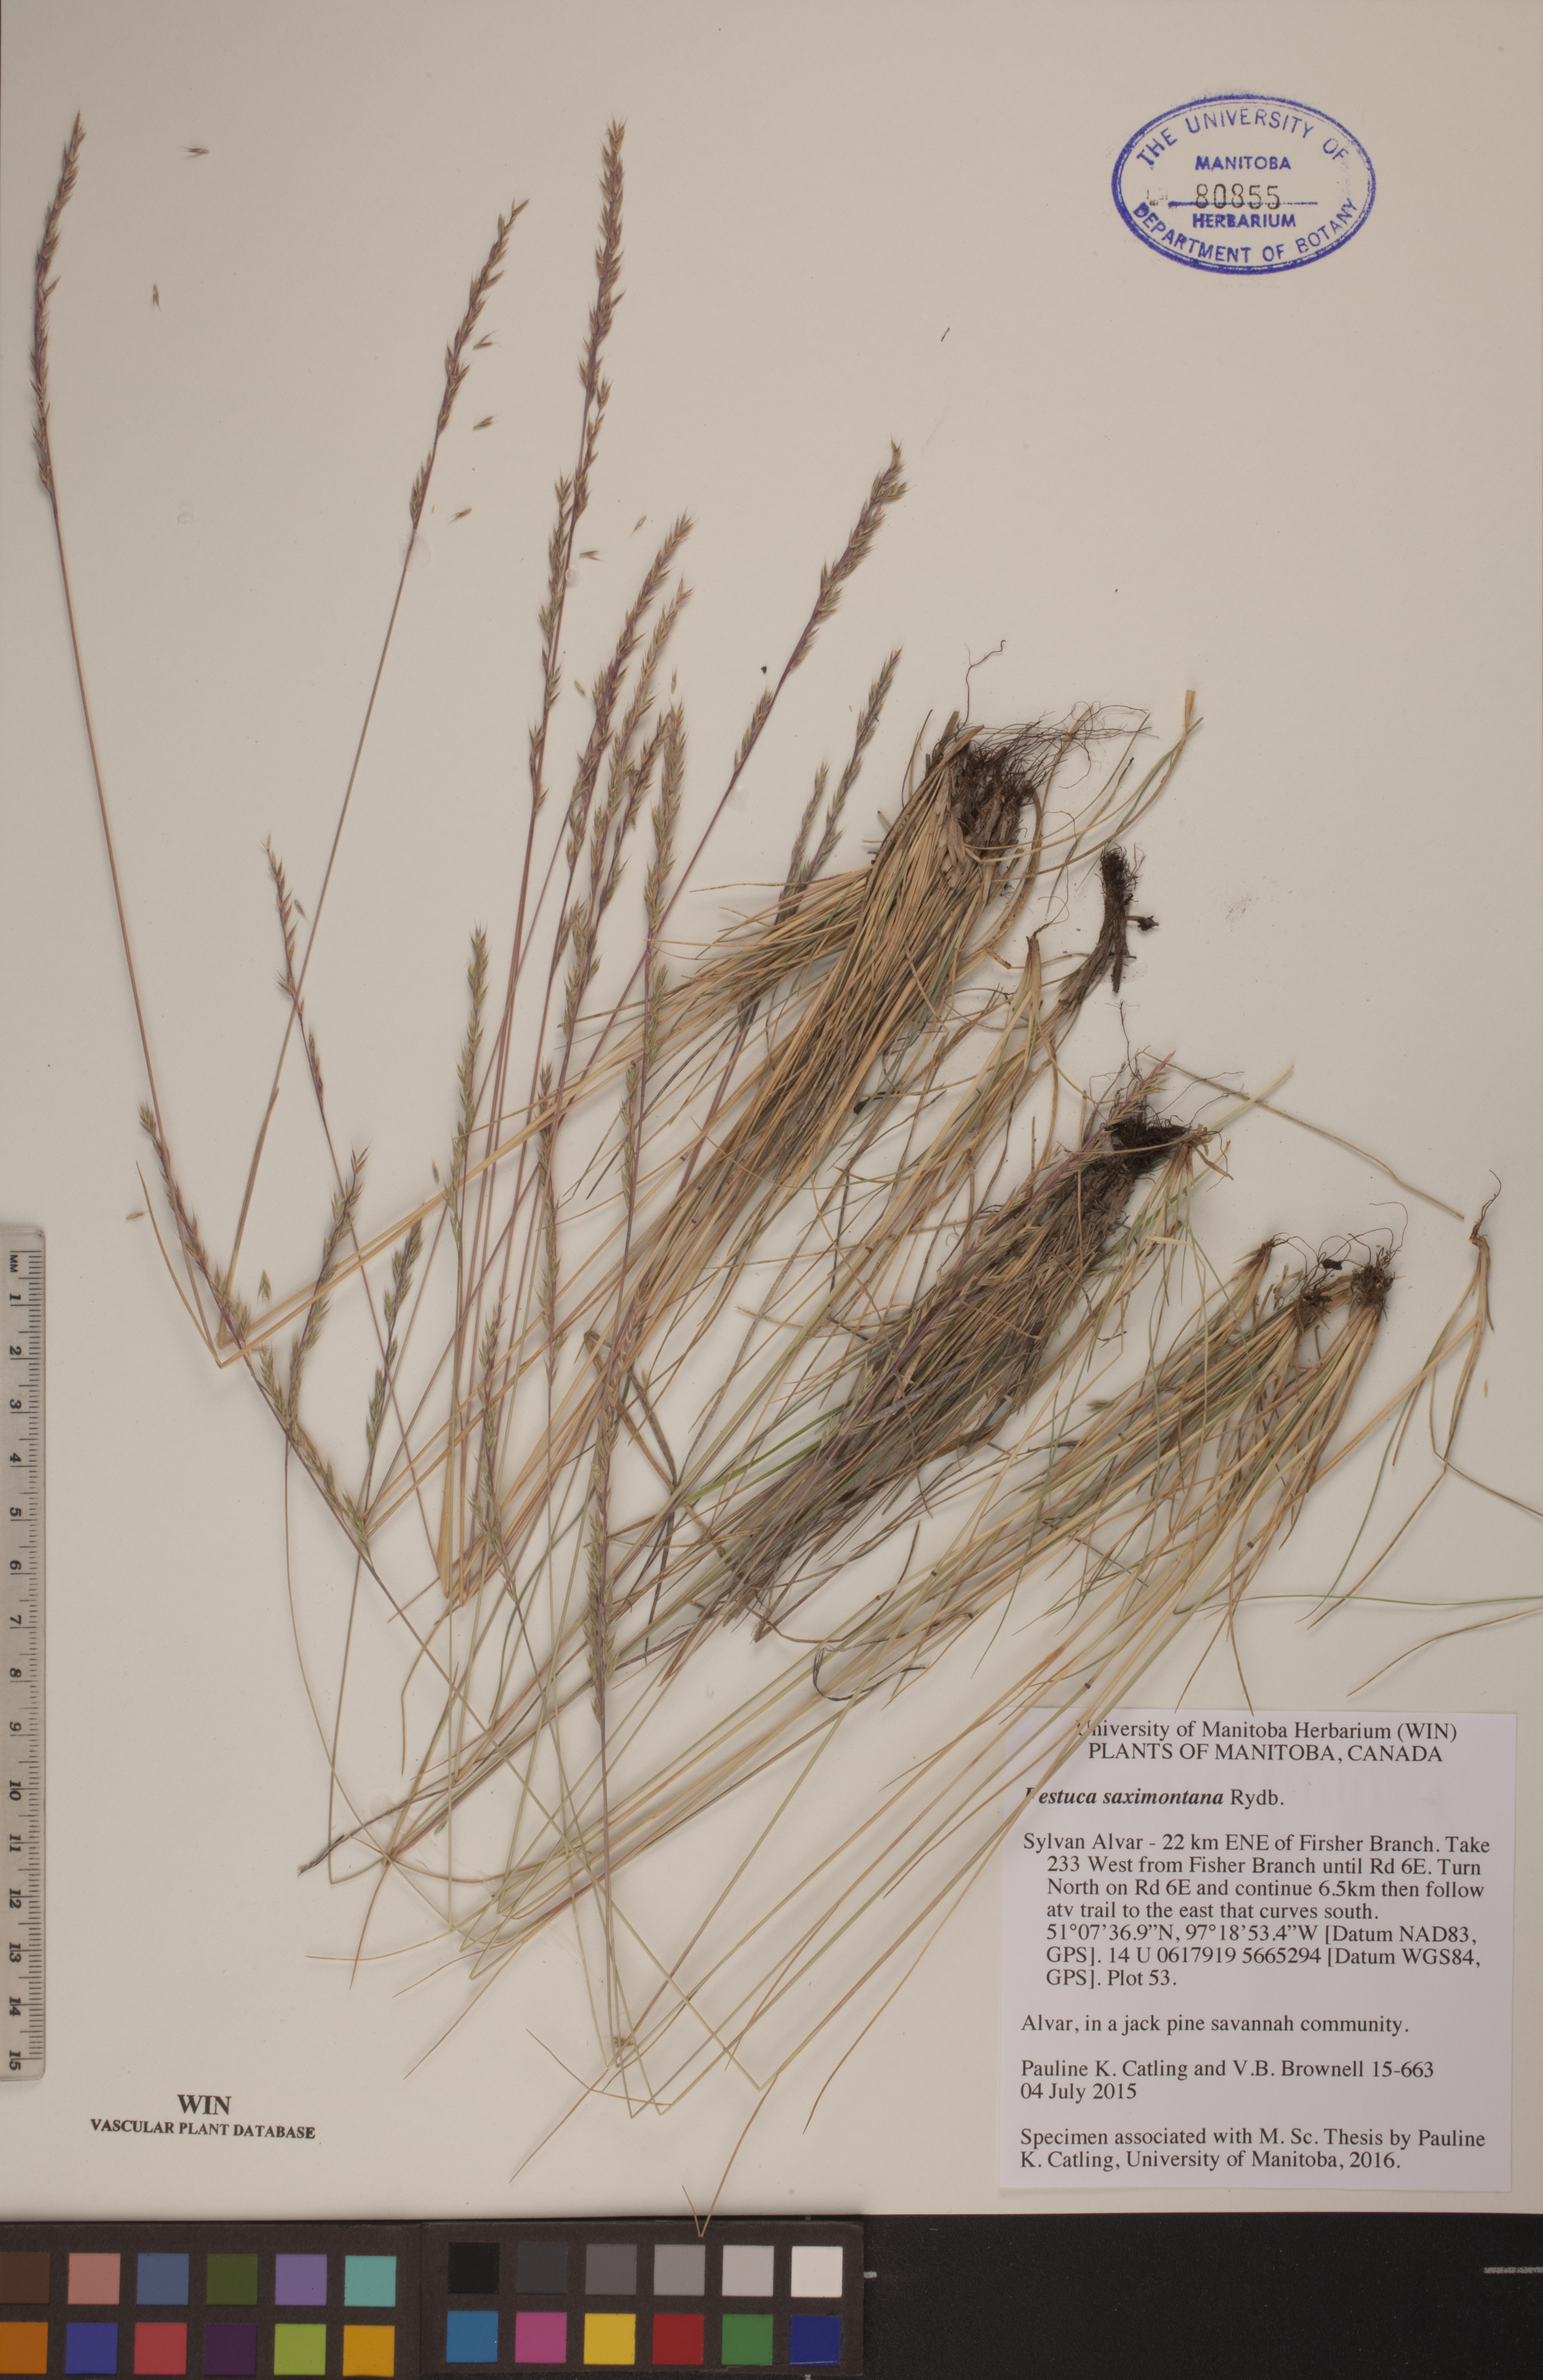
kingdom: Plantae
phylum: Tracheophyta
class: Liliopsida
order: Poales
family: Poaceae
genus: Festuca
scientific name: Festuca saximontana
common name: Mountain fescue
